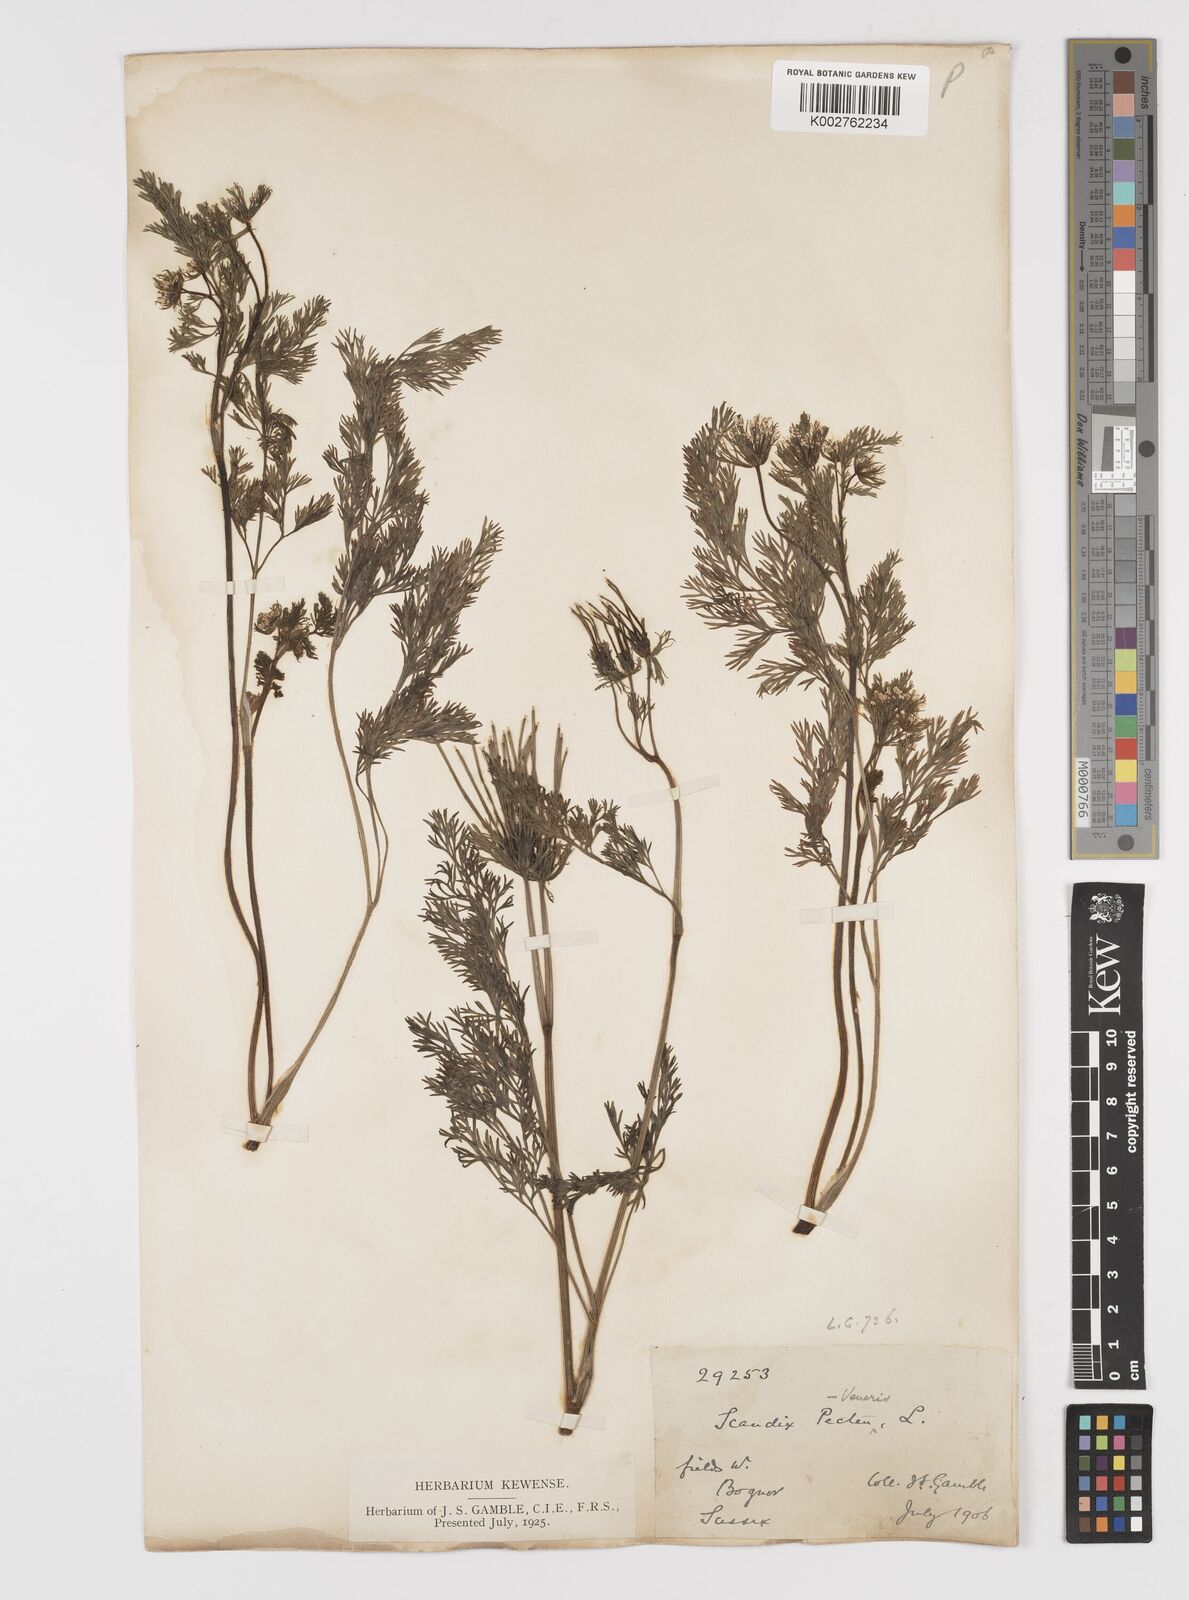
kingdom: Plantae
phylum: Tracheophyta
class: Magnoliopsida
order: Apiales
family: Apiaceae
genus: Scandix
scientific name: Scandix pecten-veneris
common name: Shepherd's-needle
